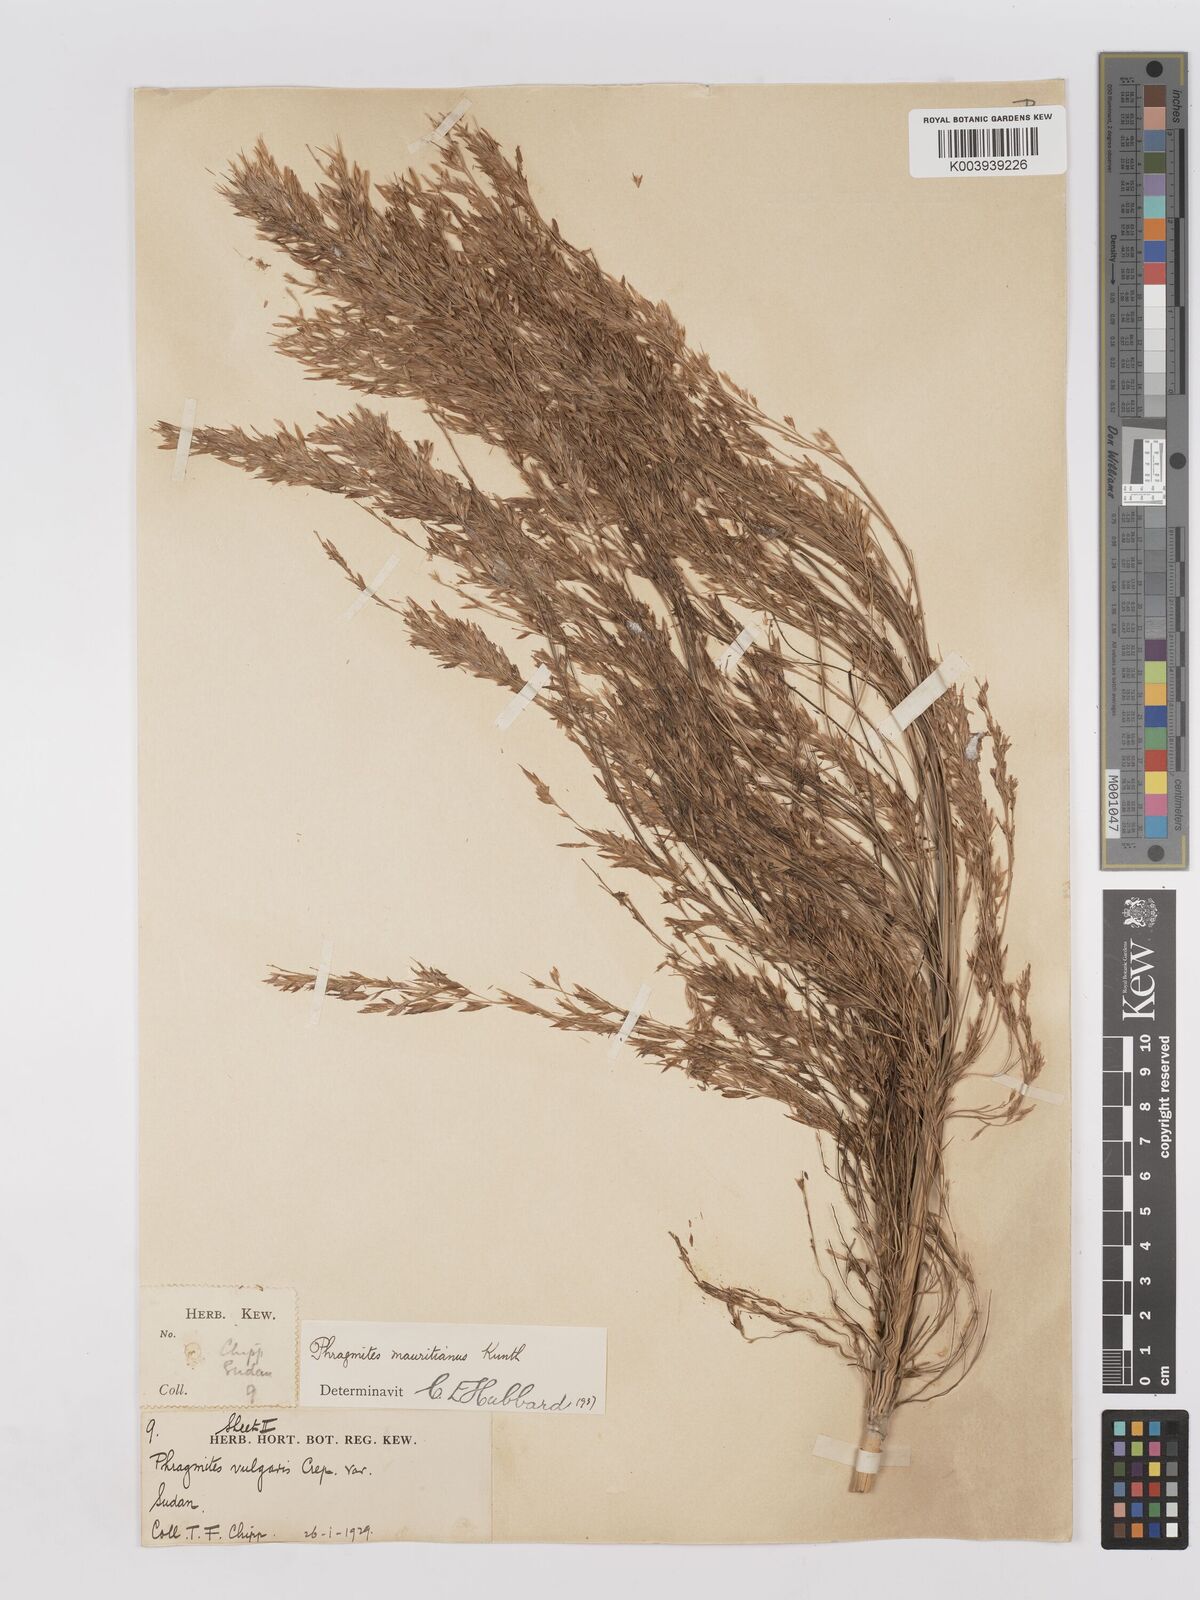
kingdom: Plantae
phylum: Tracheophyta
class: Liliopsida
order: Poales
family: Poaceae
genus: Phragmites
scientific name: Phragmites mauritianus
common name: Reed grass
